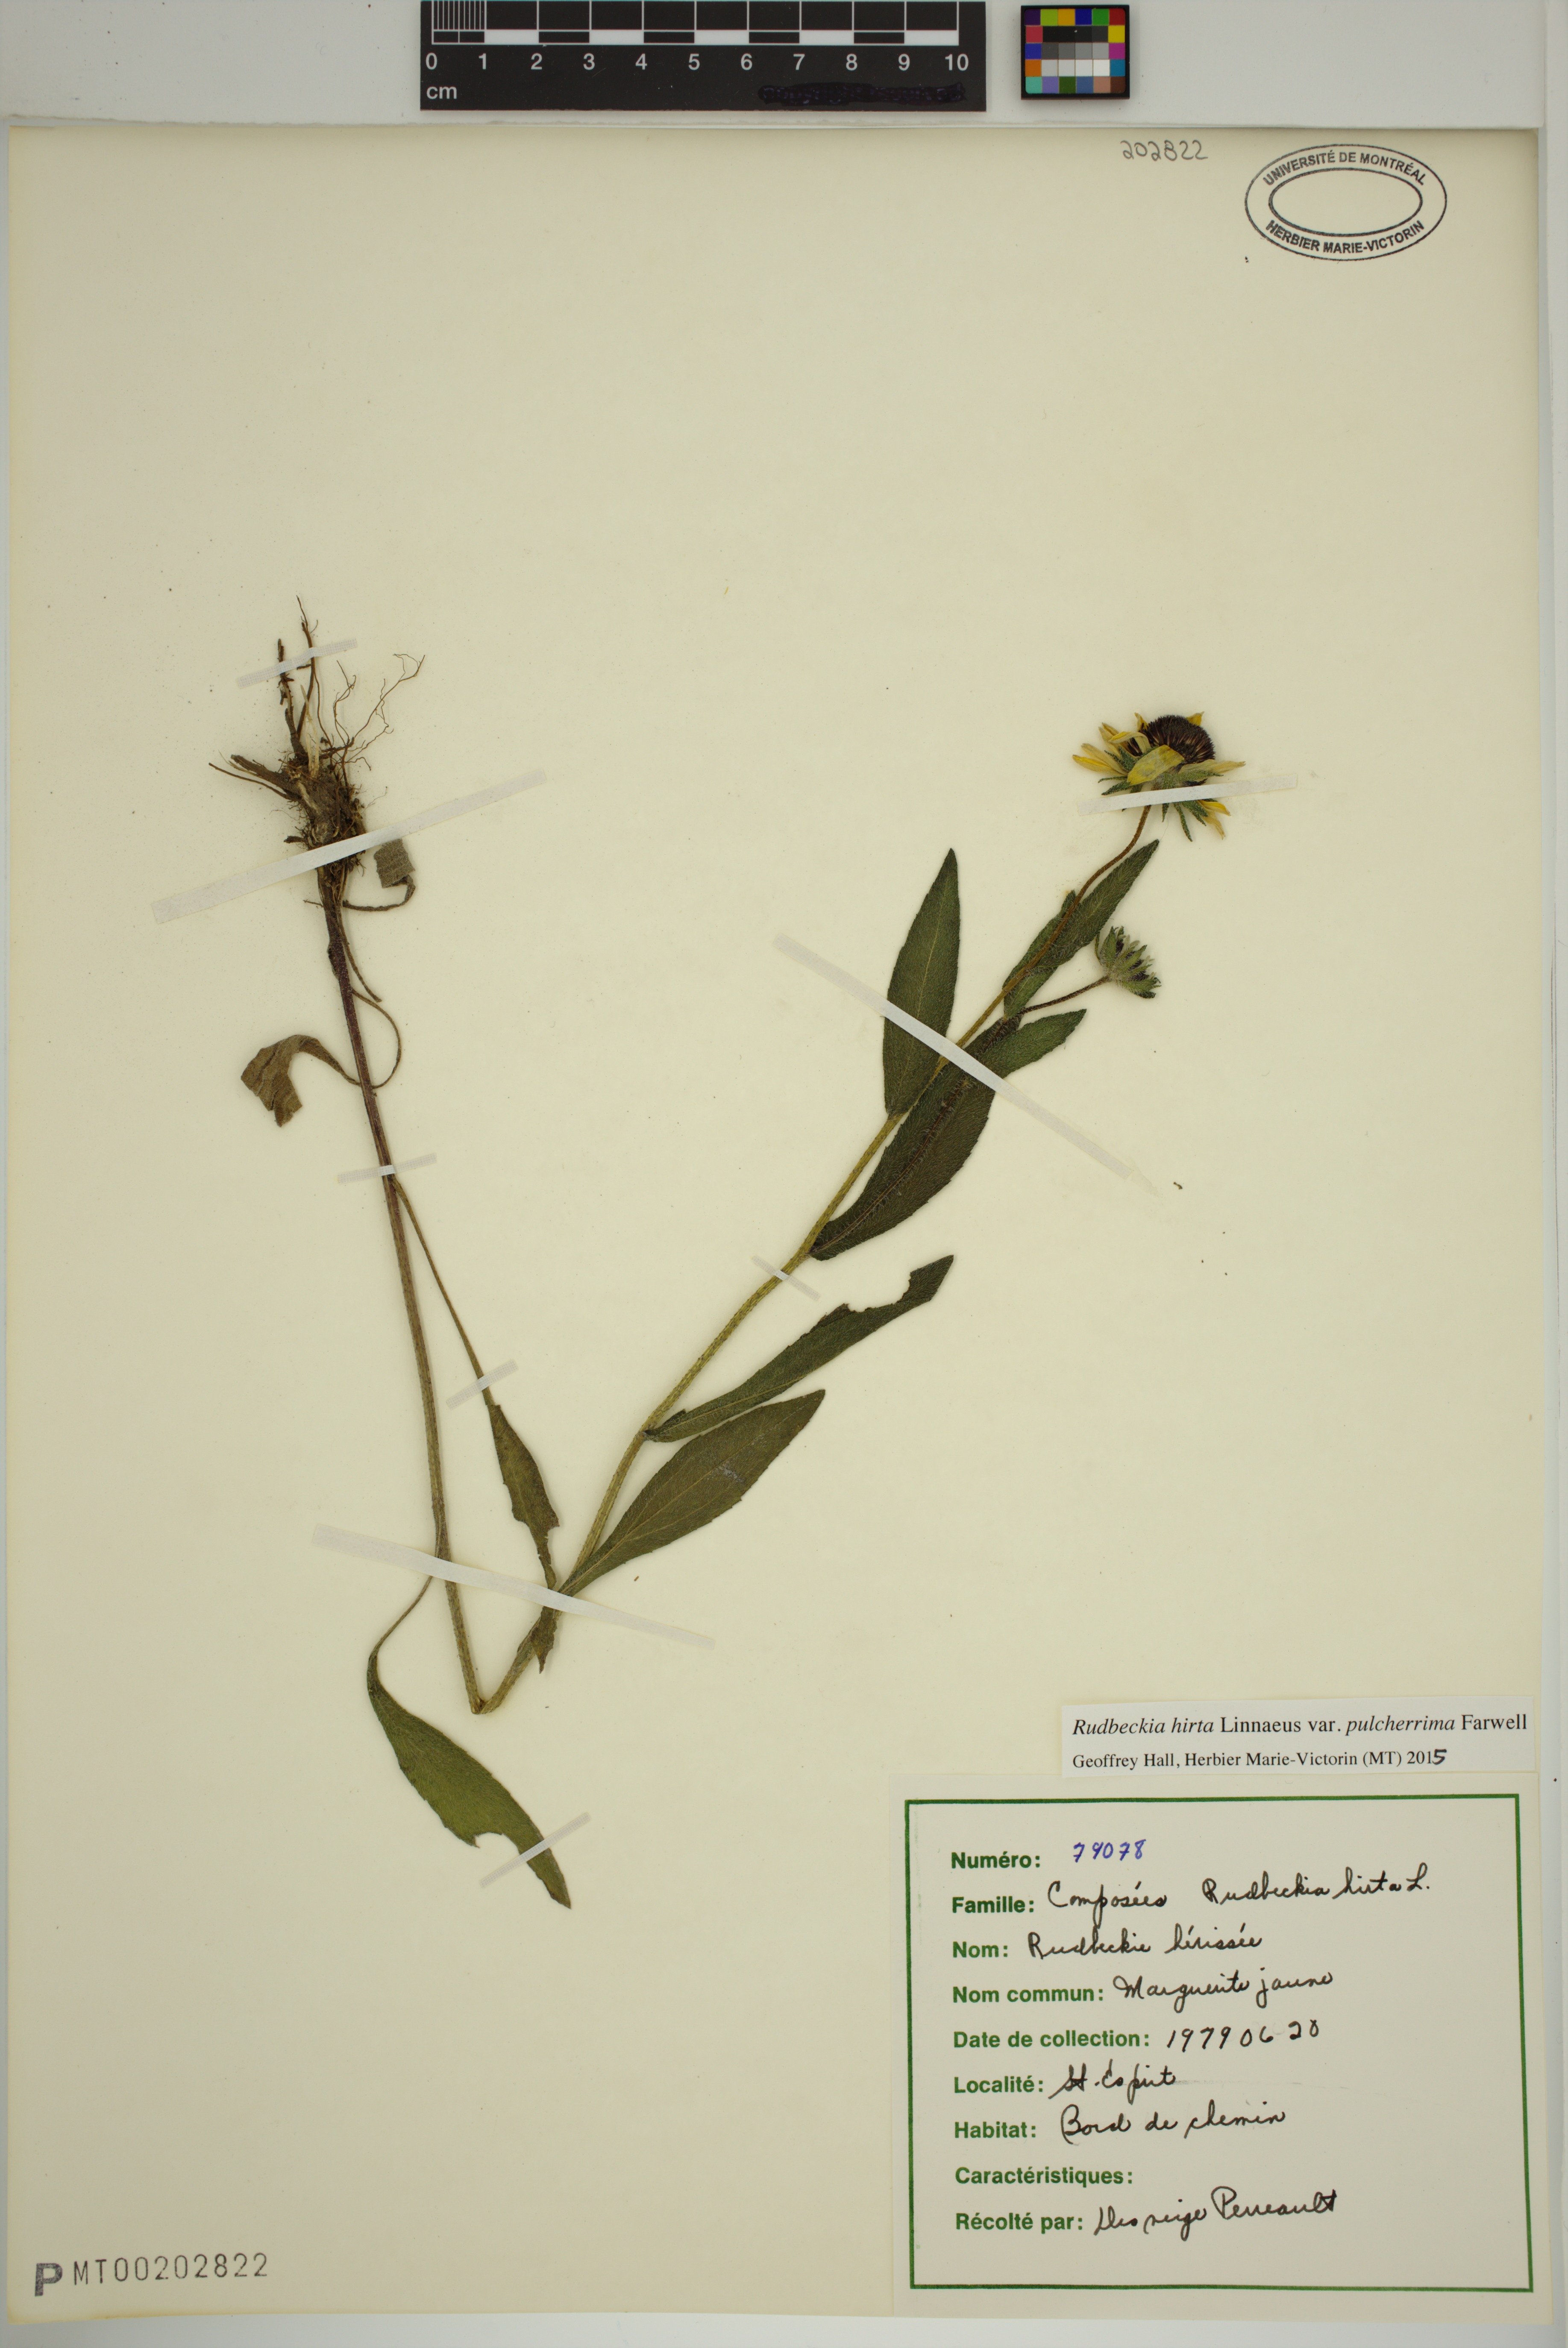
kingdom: Plantae
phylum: Tracheophyta
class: Magnoliopsida
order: Asterales
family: Asteraceae
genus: Rudbeckia
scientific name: Rudbeckia hirta
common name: Black-eyed-susan
